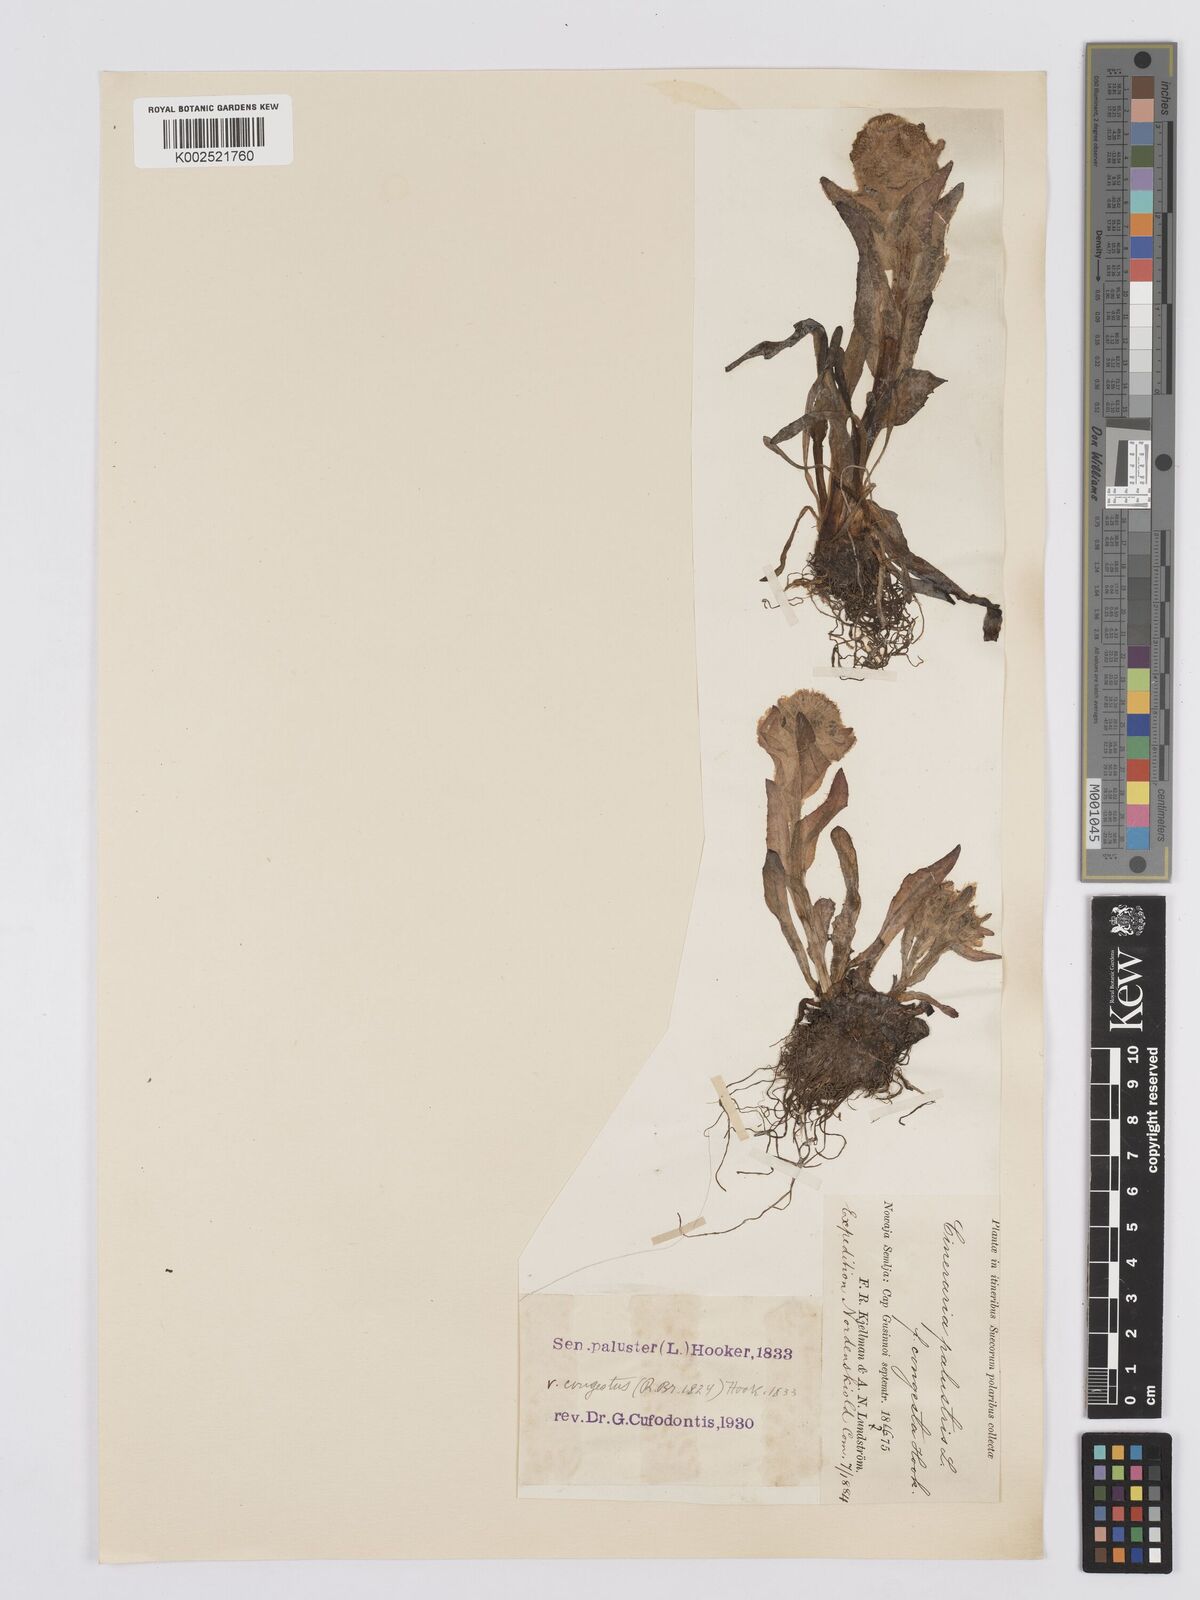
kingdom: Plantae
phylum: Tracheophyta
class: Magnoliopsida
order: Asterales
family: Asteraceae
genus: Tephroseris
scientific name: Tephroseris palustris
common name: Marsh fleawort
